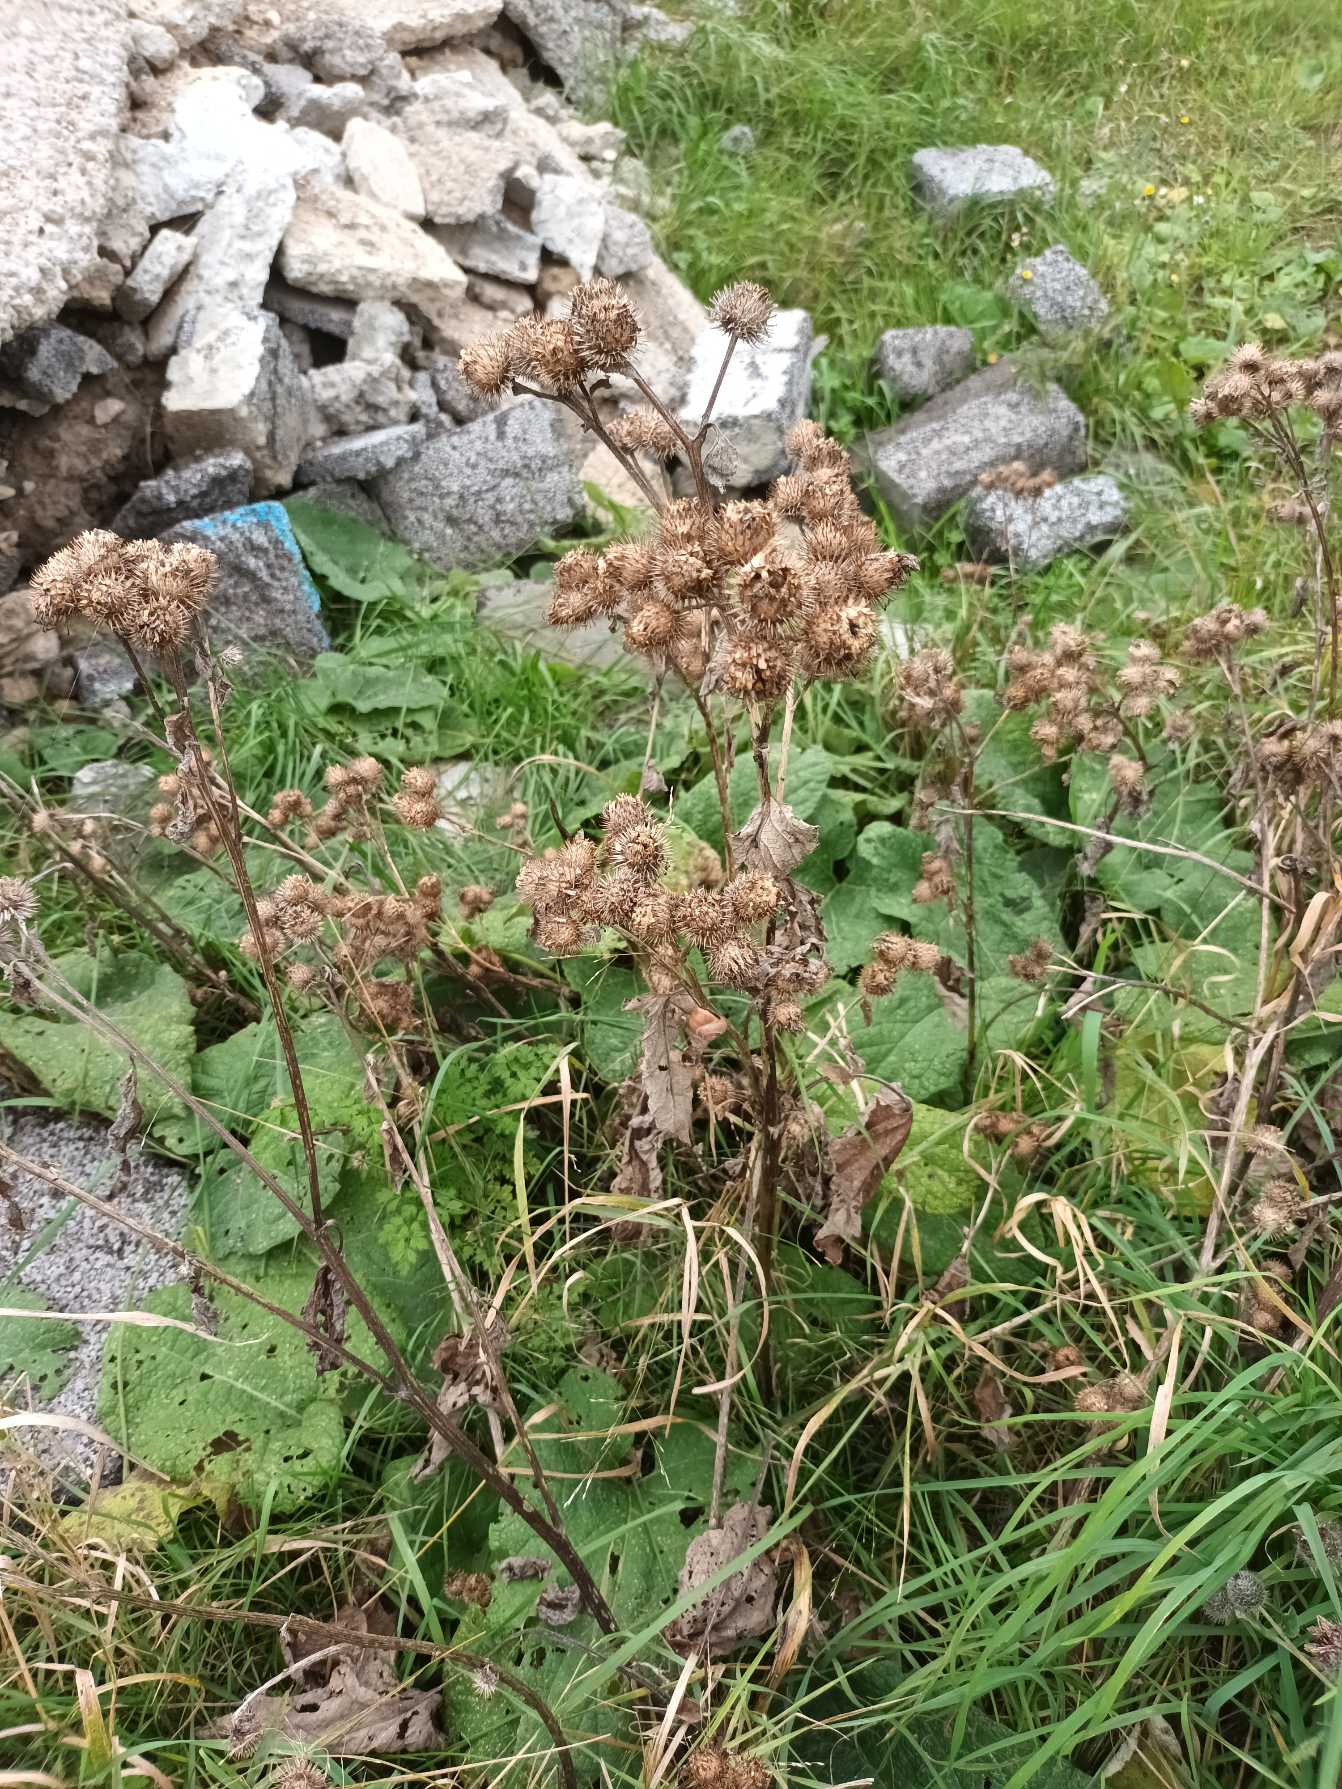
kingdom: Plantae
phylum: Tracheophyta
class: Magnoliopsida
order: Asterales
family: Asteraceae
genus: Arctium
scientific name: Arctium tomentosum
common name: Filtet burre
